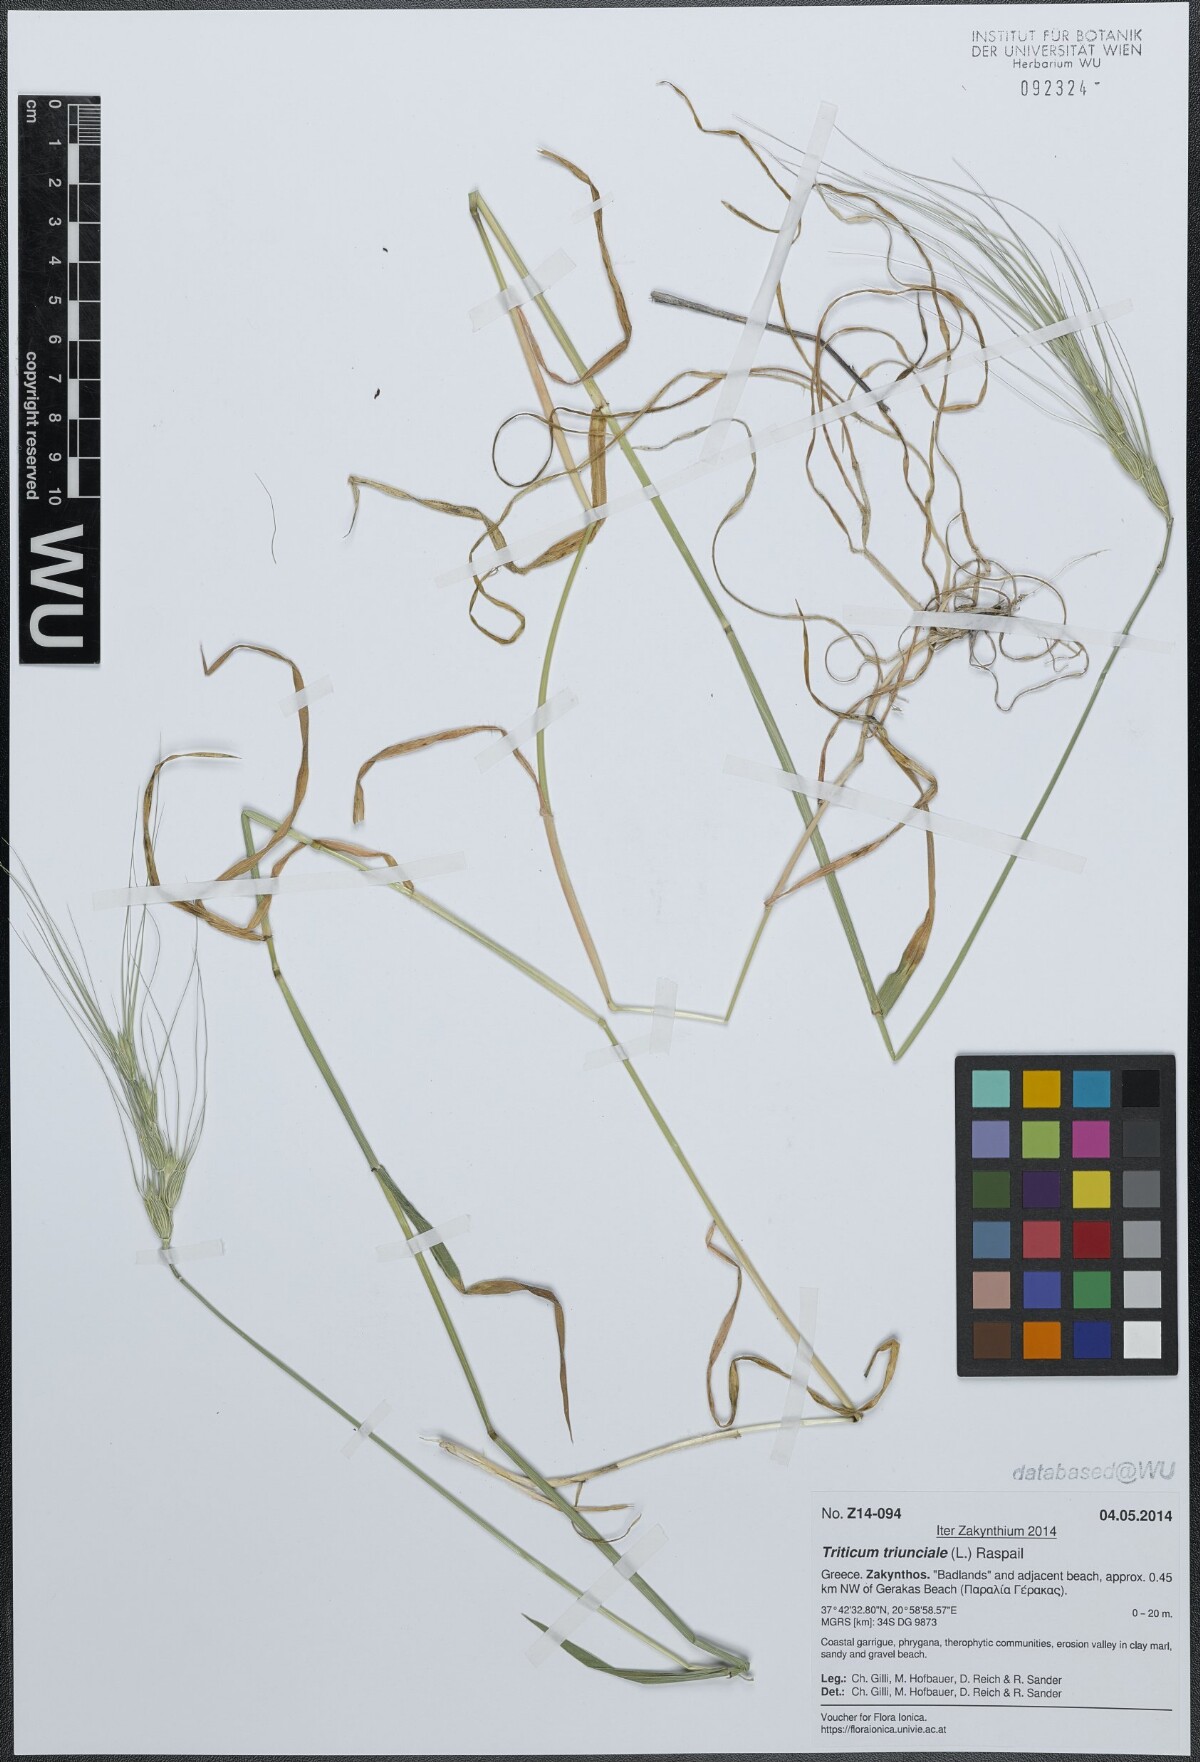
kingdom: Plantae
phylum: Tracheophyta
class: Liliopsida
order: Poales
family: Poaceae
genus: Aegilops
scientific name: Aegilops triuncialis
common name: Barb goat grass
